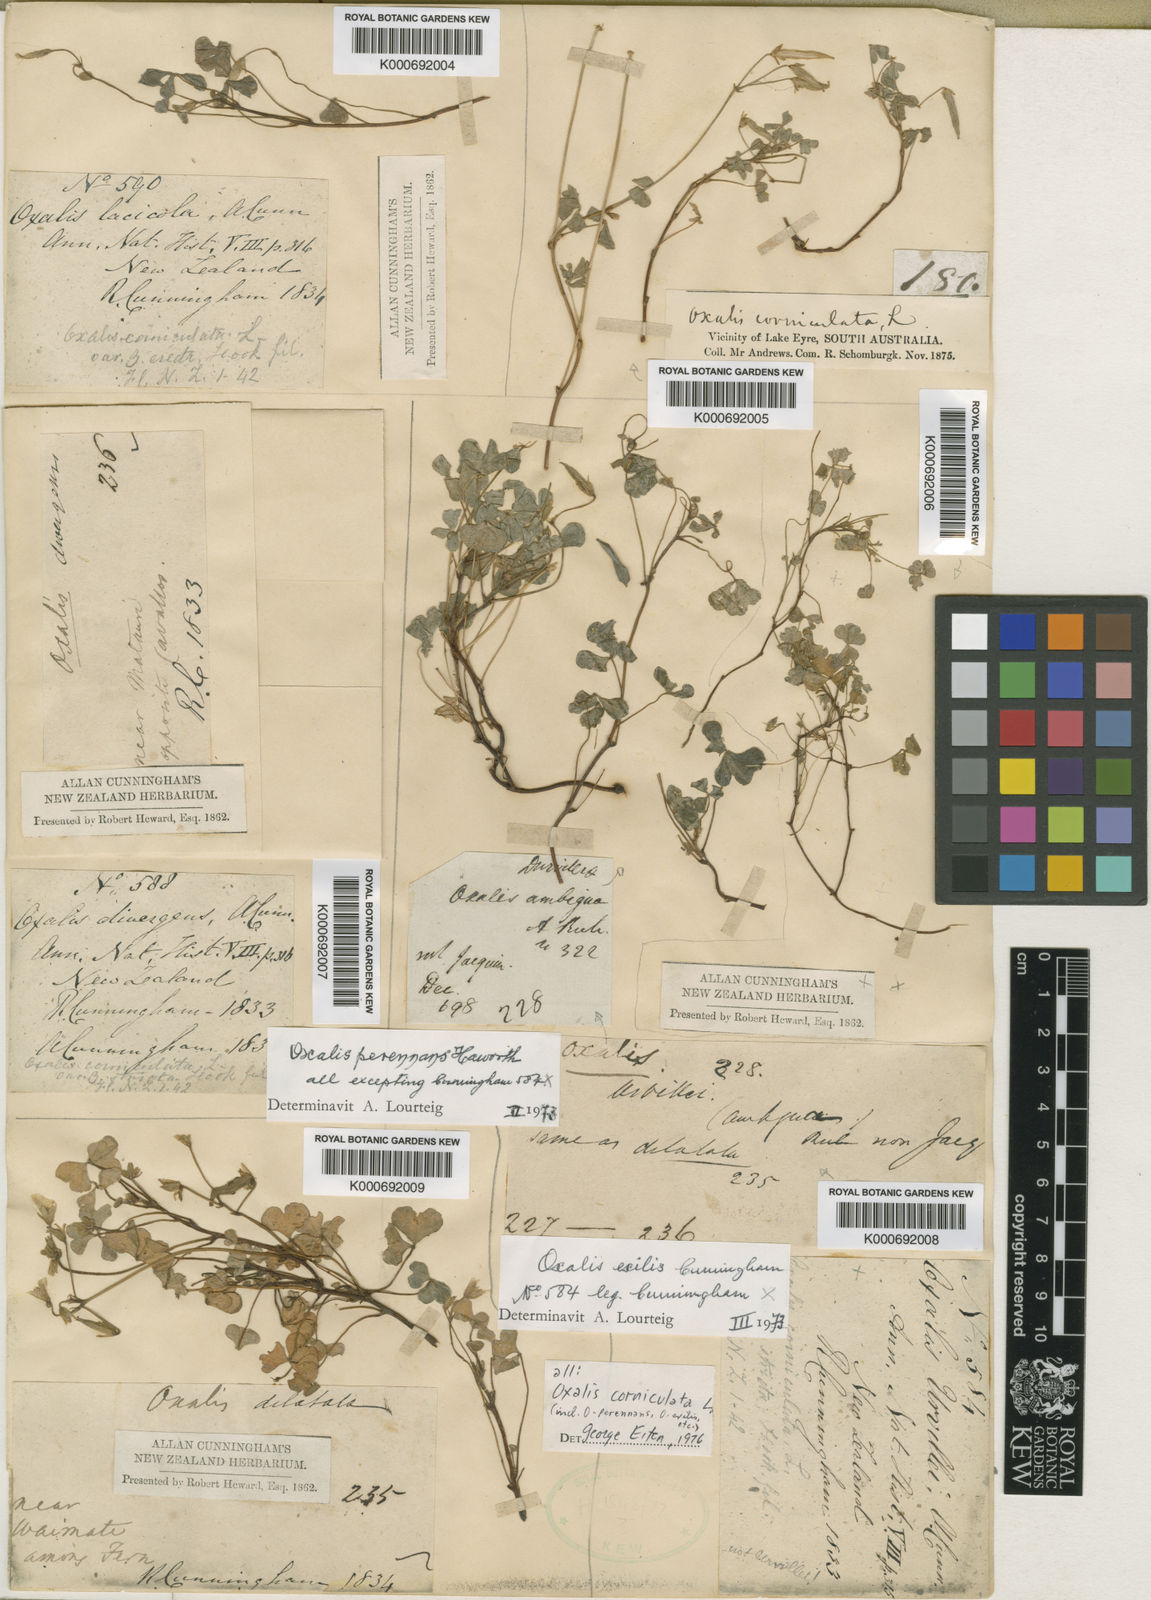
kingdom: Plantae
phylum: Tracheophyta
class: Magnoliopsida
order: Oxalidales
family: Oxalidaceae
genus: Oxalis
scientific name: Oxalis corniculata
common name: Procumbent yellow-sorrel
